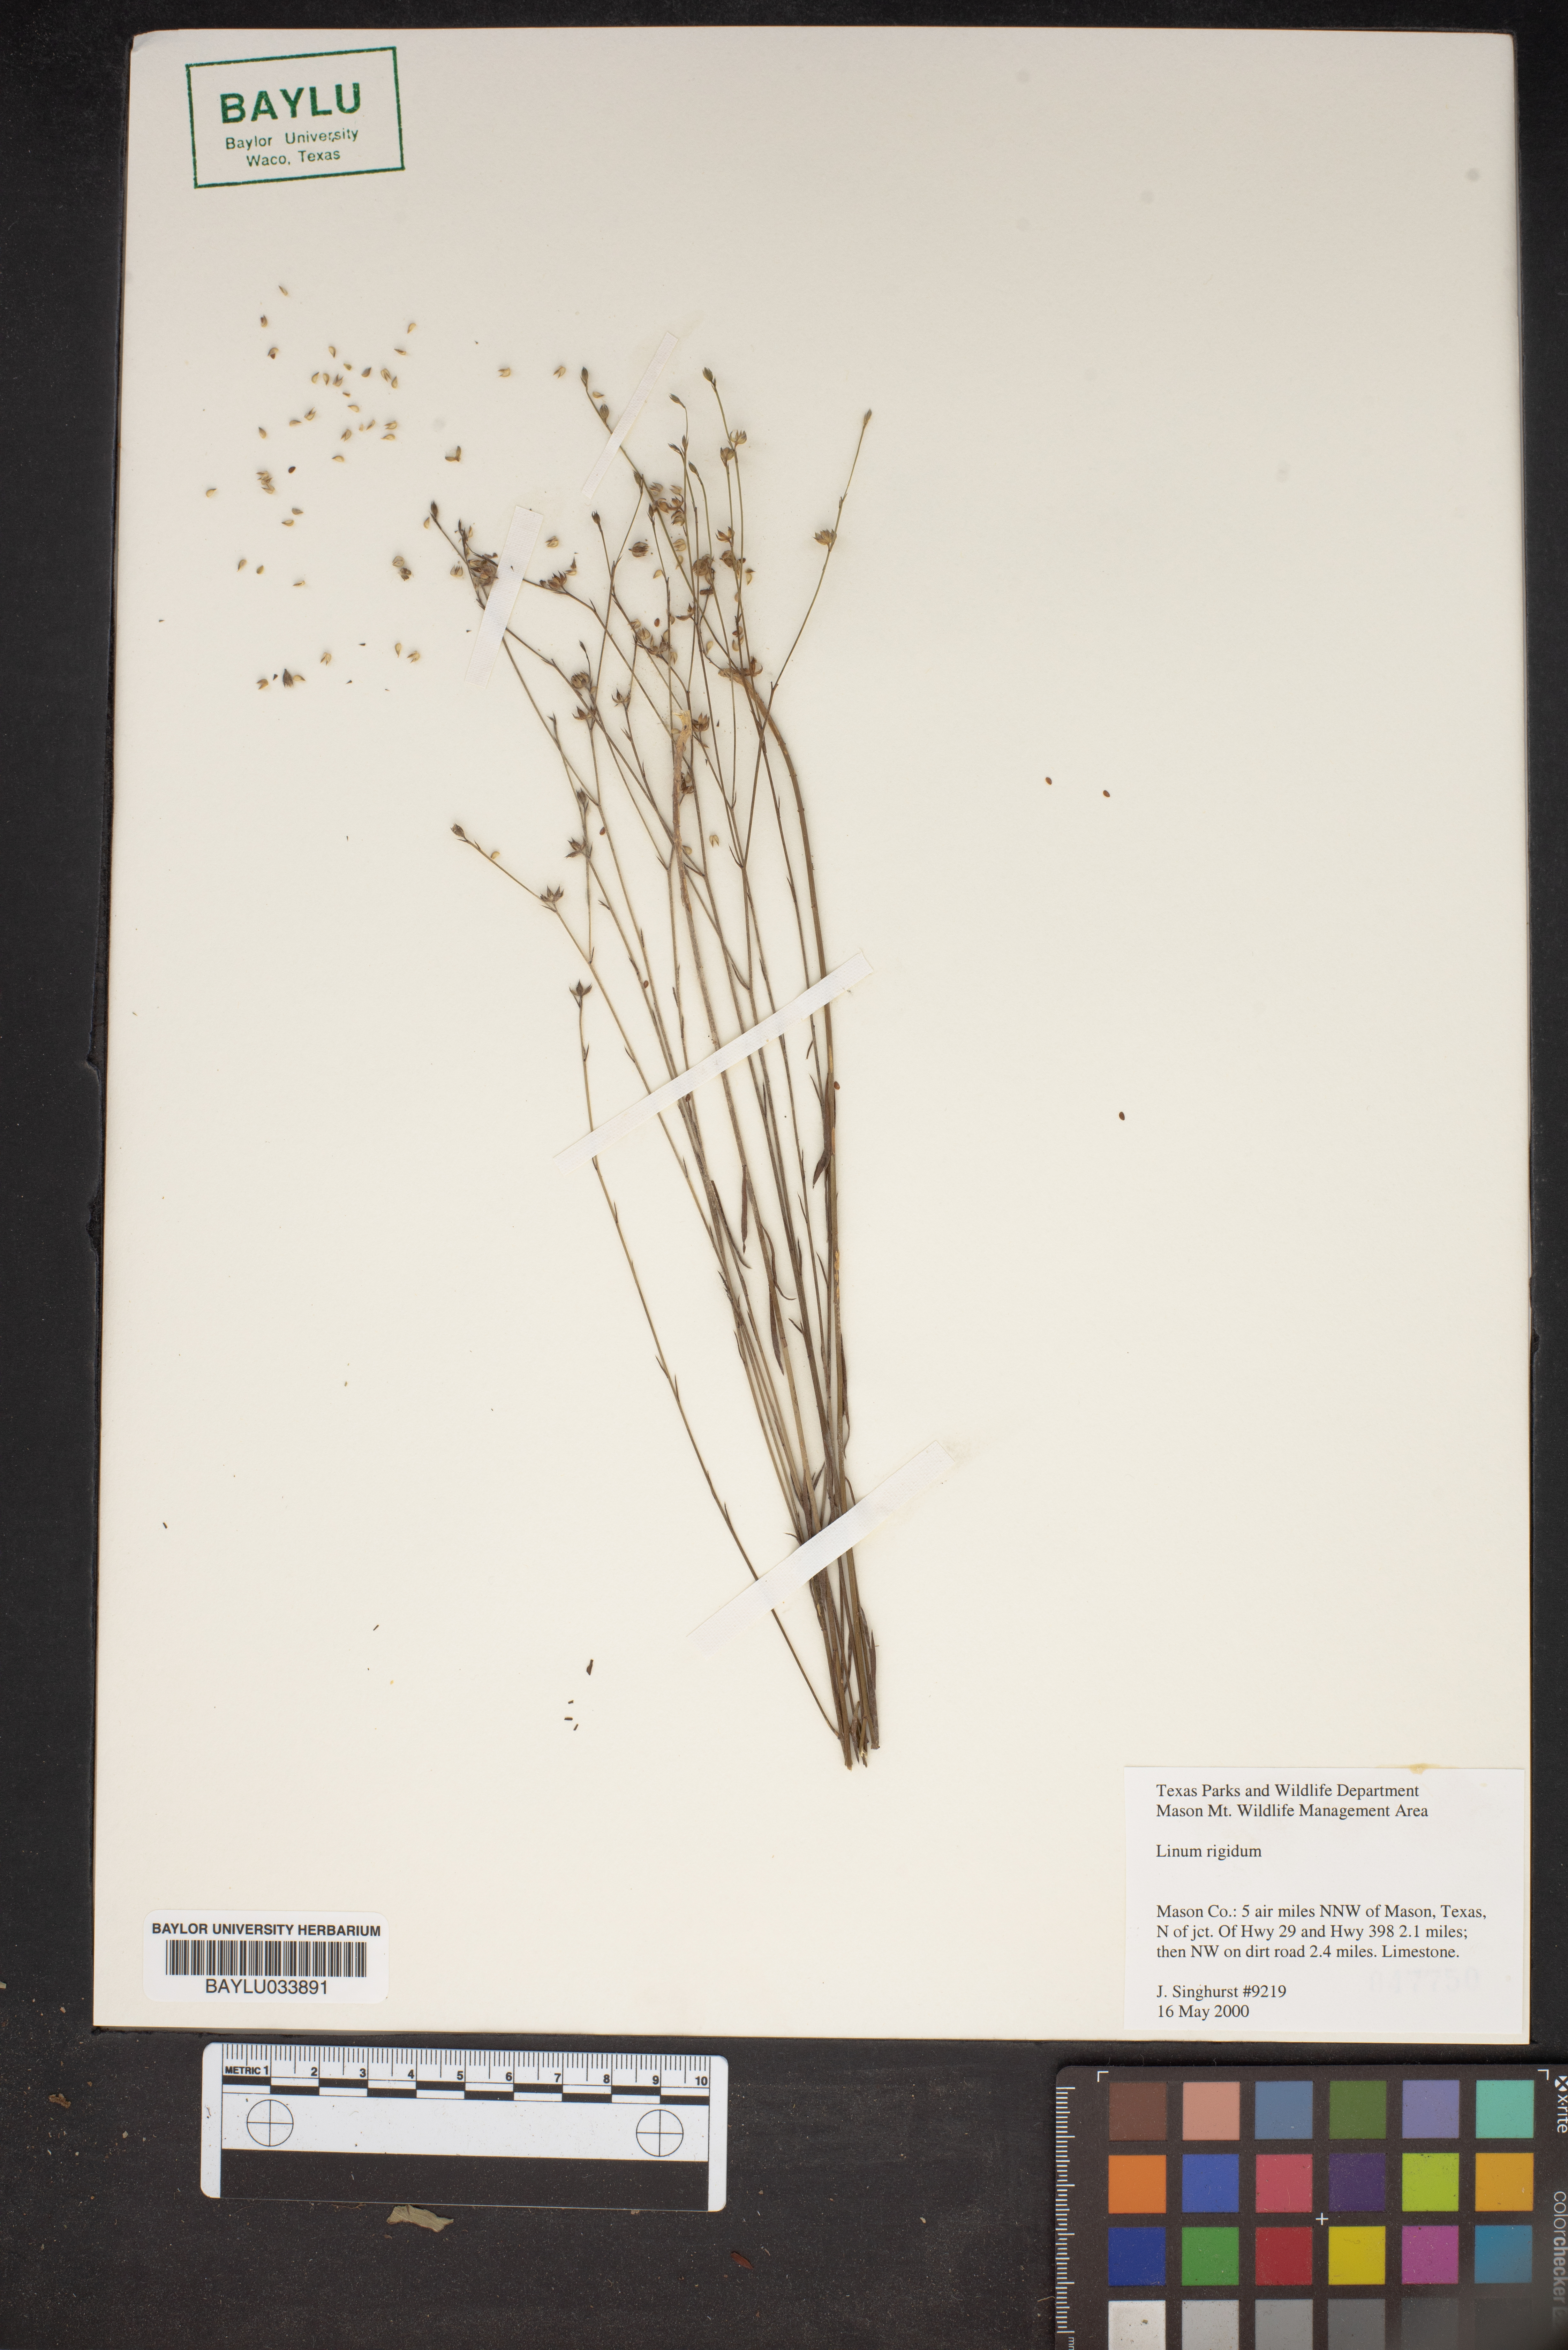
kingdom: Plantae
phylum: Tracheophyta
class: Magnoliopsida
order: Malpighiales
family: Linaceae
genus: Linum
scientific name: Linum rigidum
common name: Stiff-stem flax
